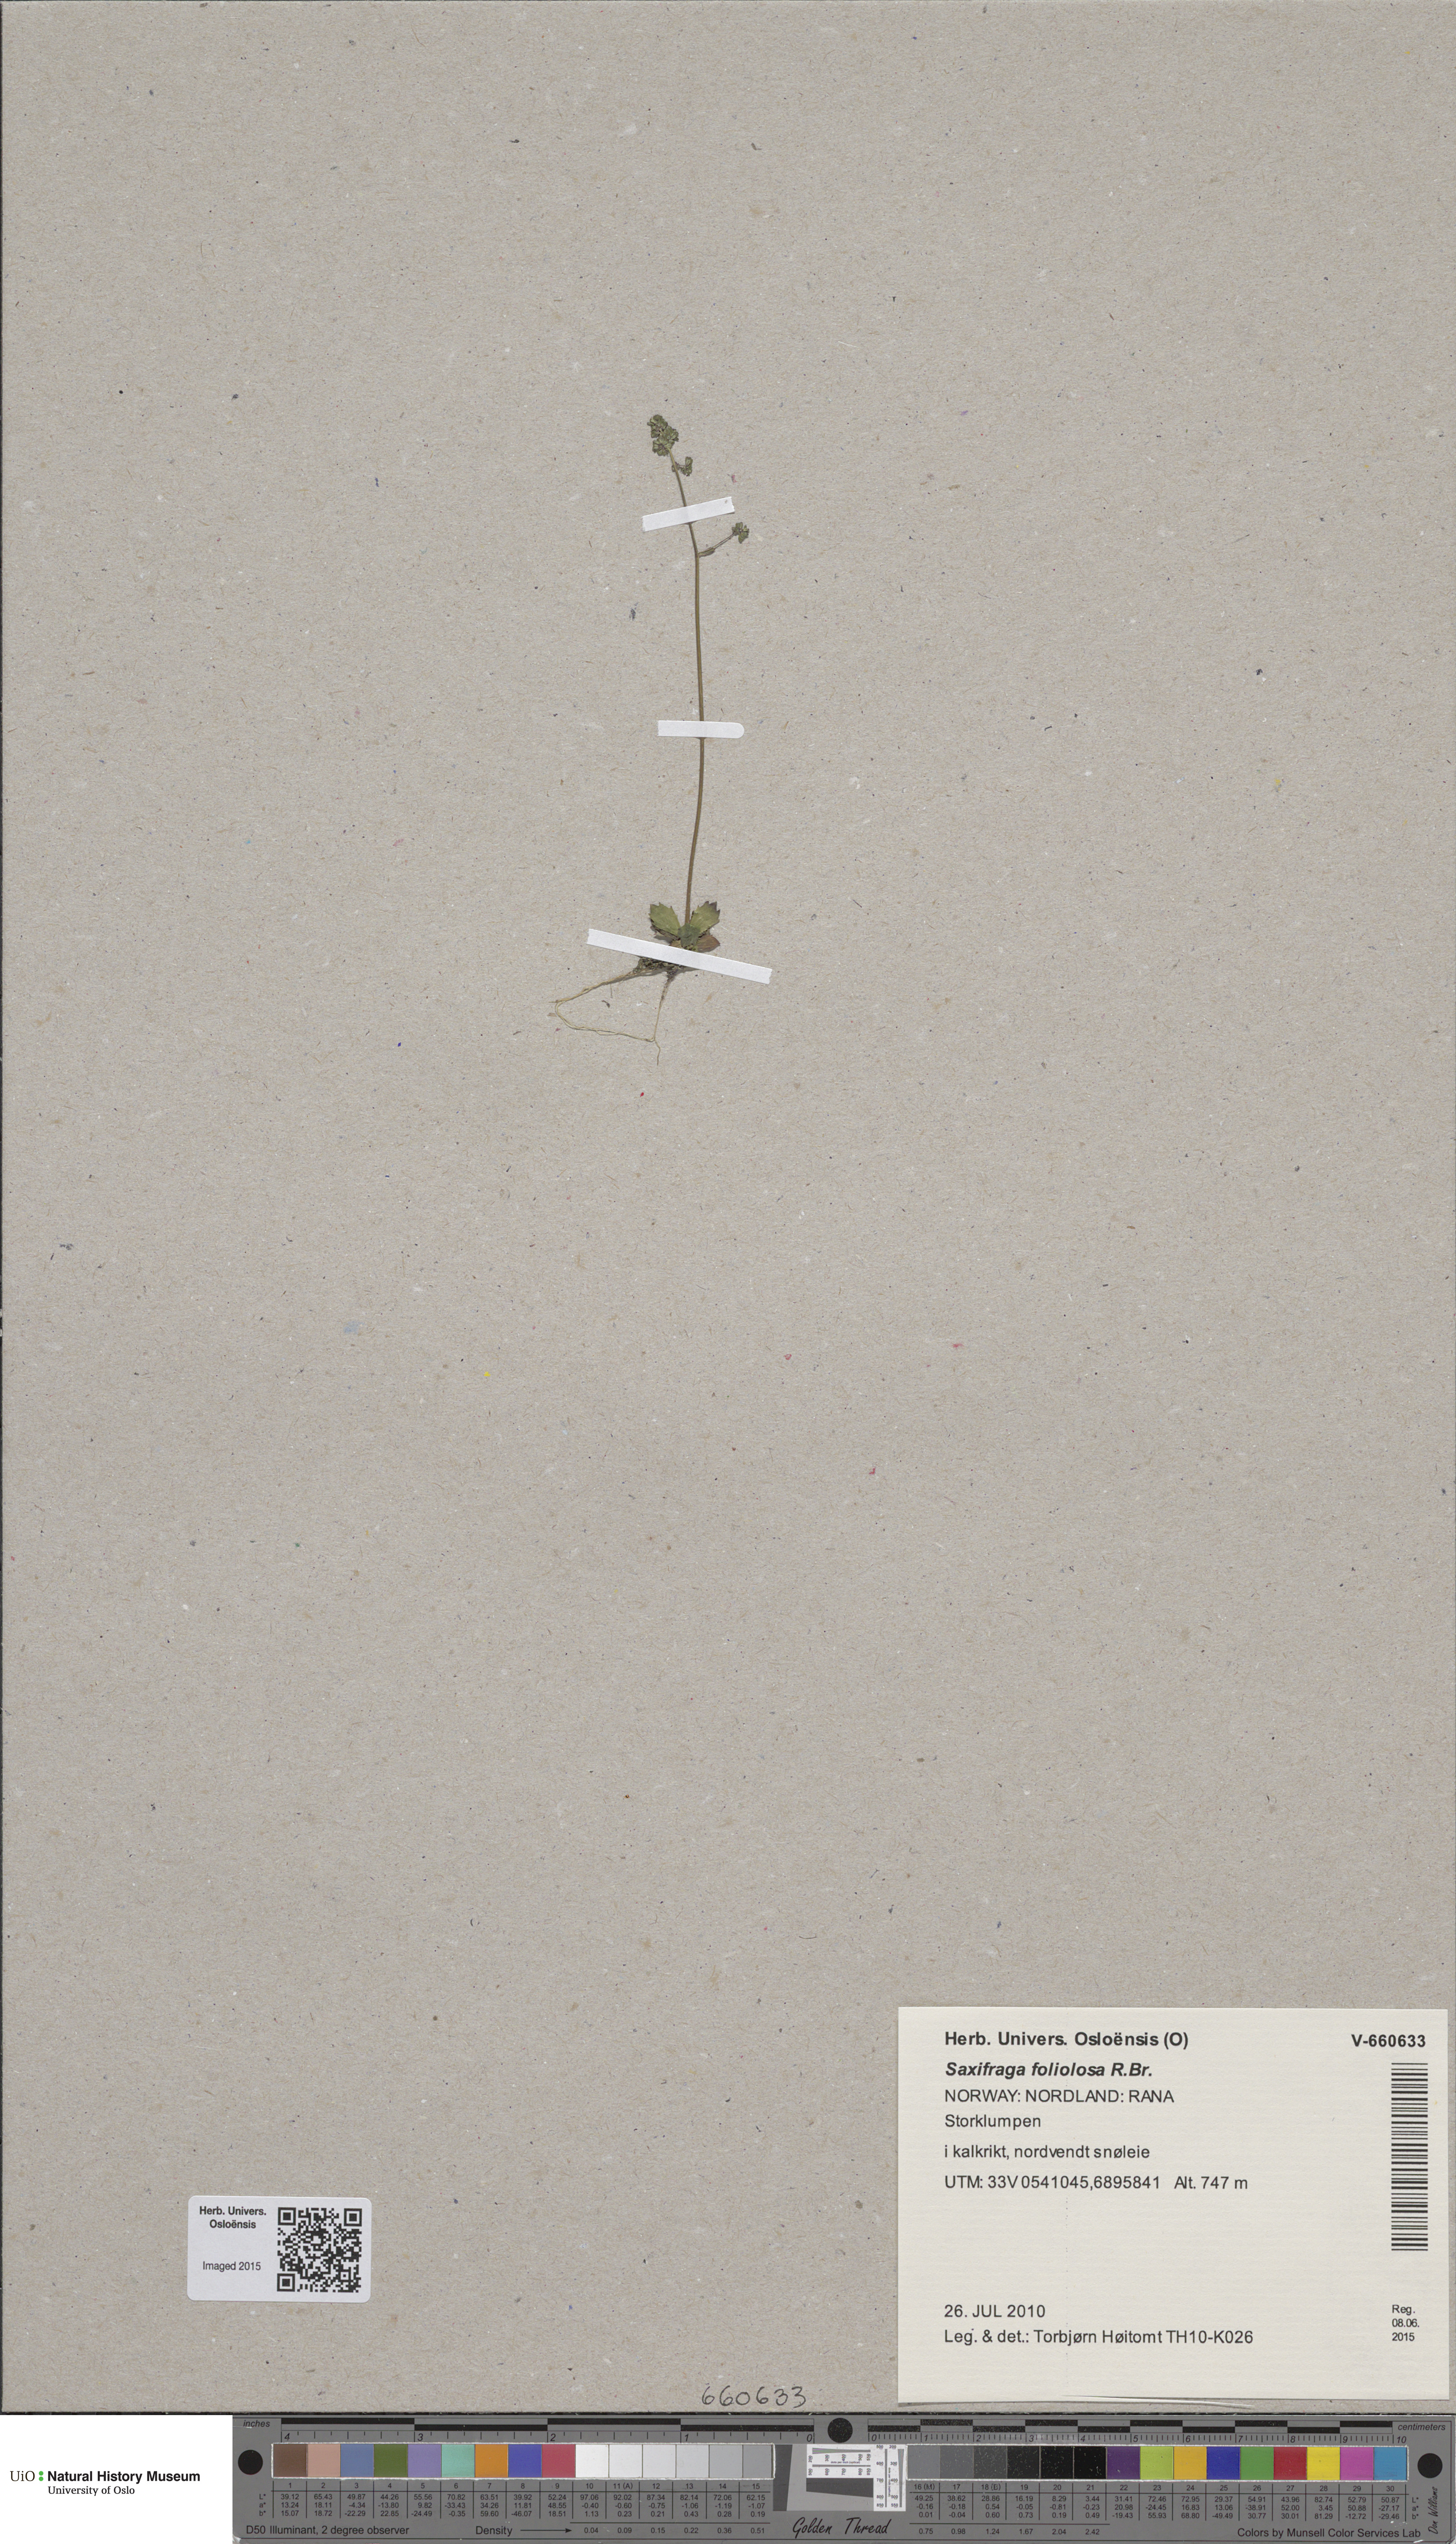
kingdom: Plantae
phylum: Tracheophyta
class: Magnoliopsida
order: Saxifragales
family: Saxifragaceae
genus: Micranthes
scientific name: Micranthes foliolosa
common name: Leafystem saxifrage
